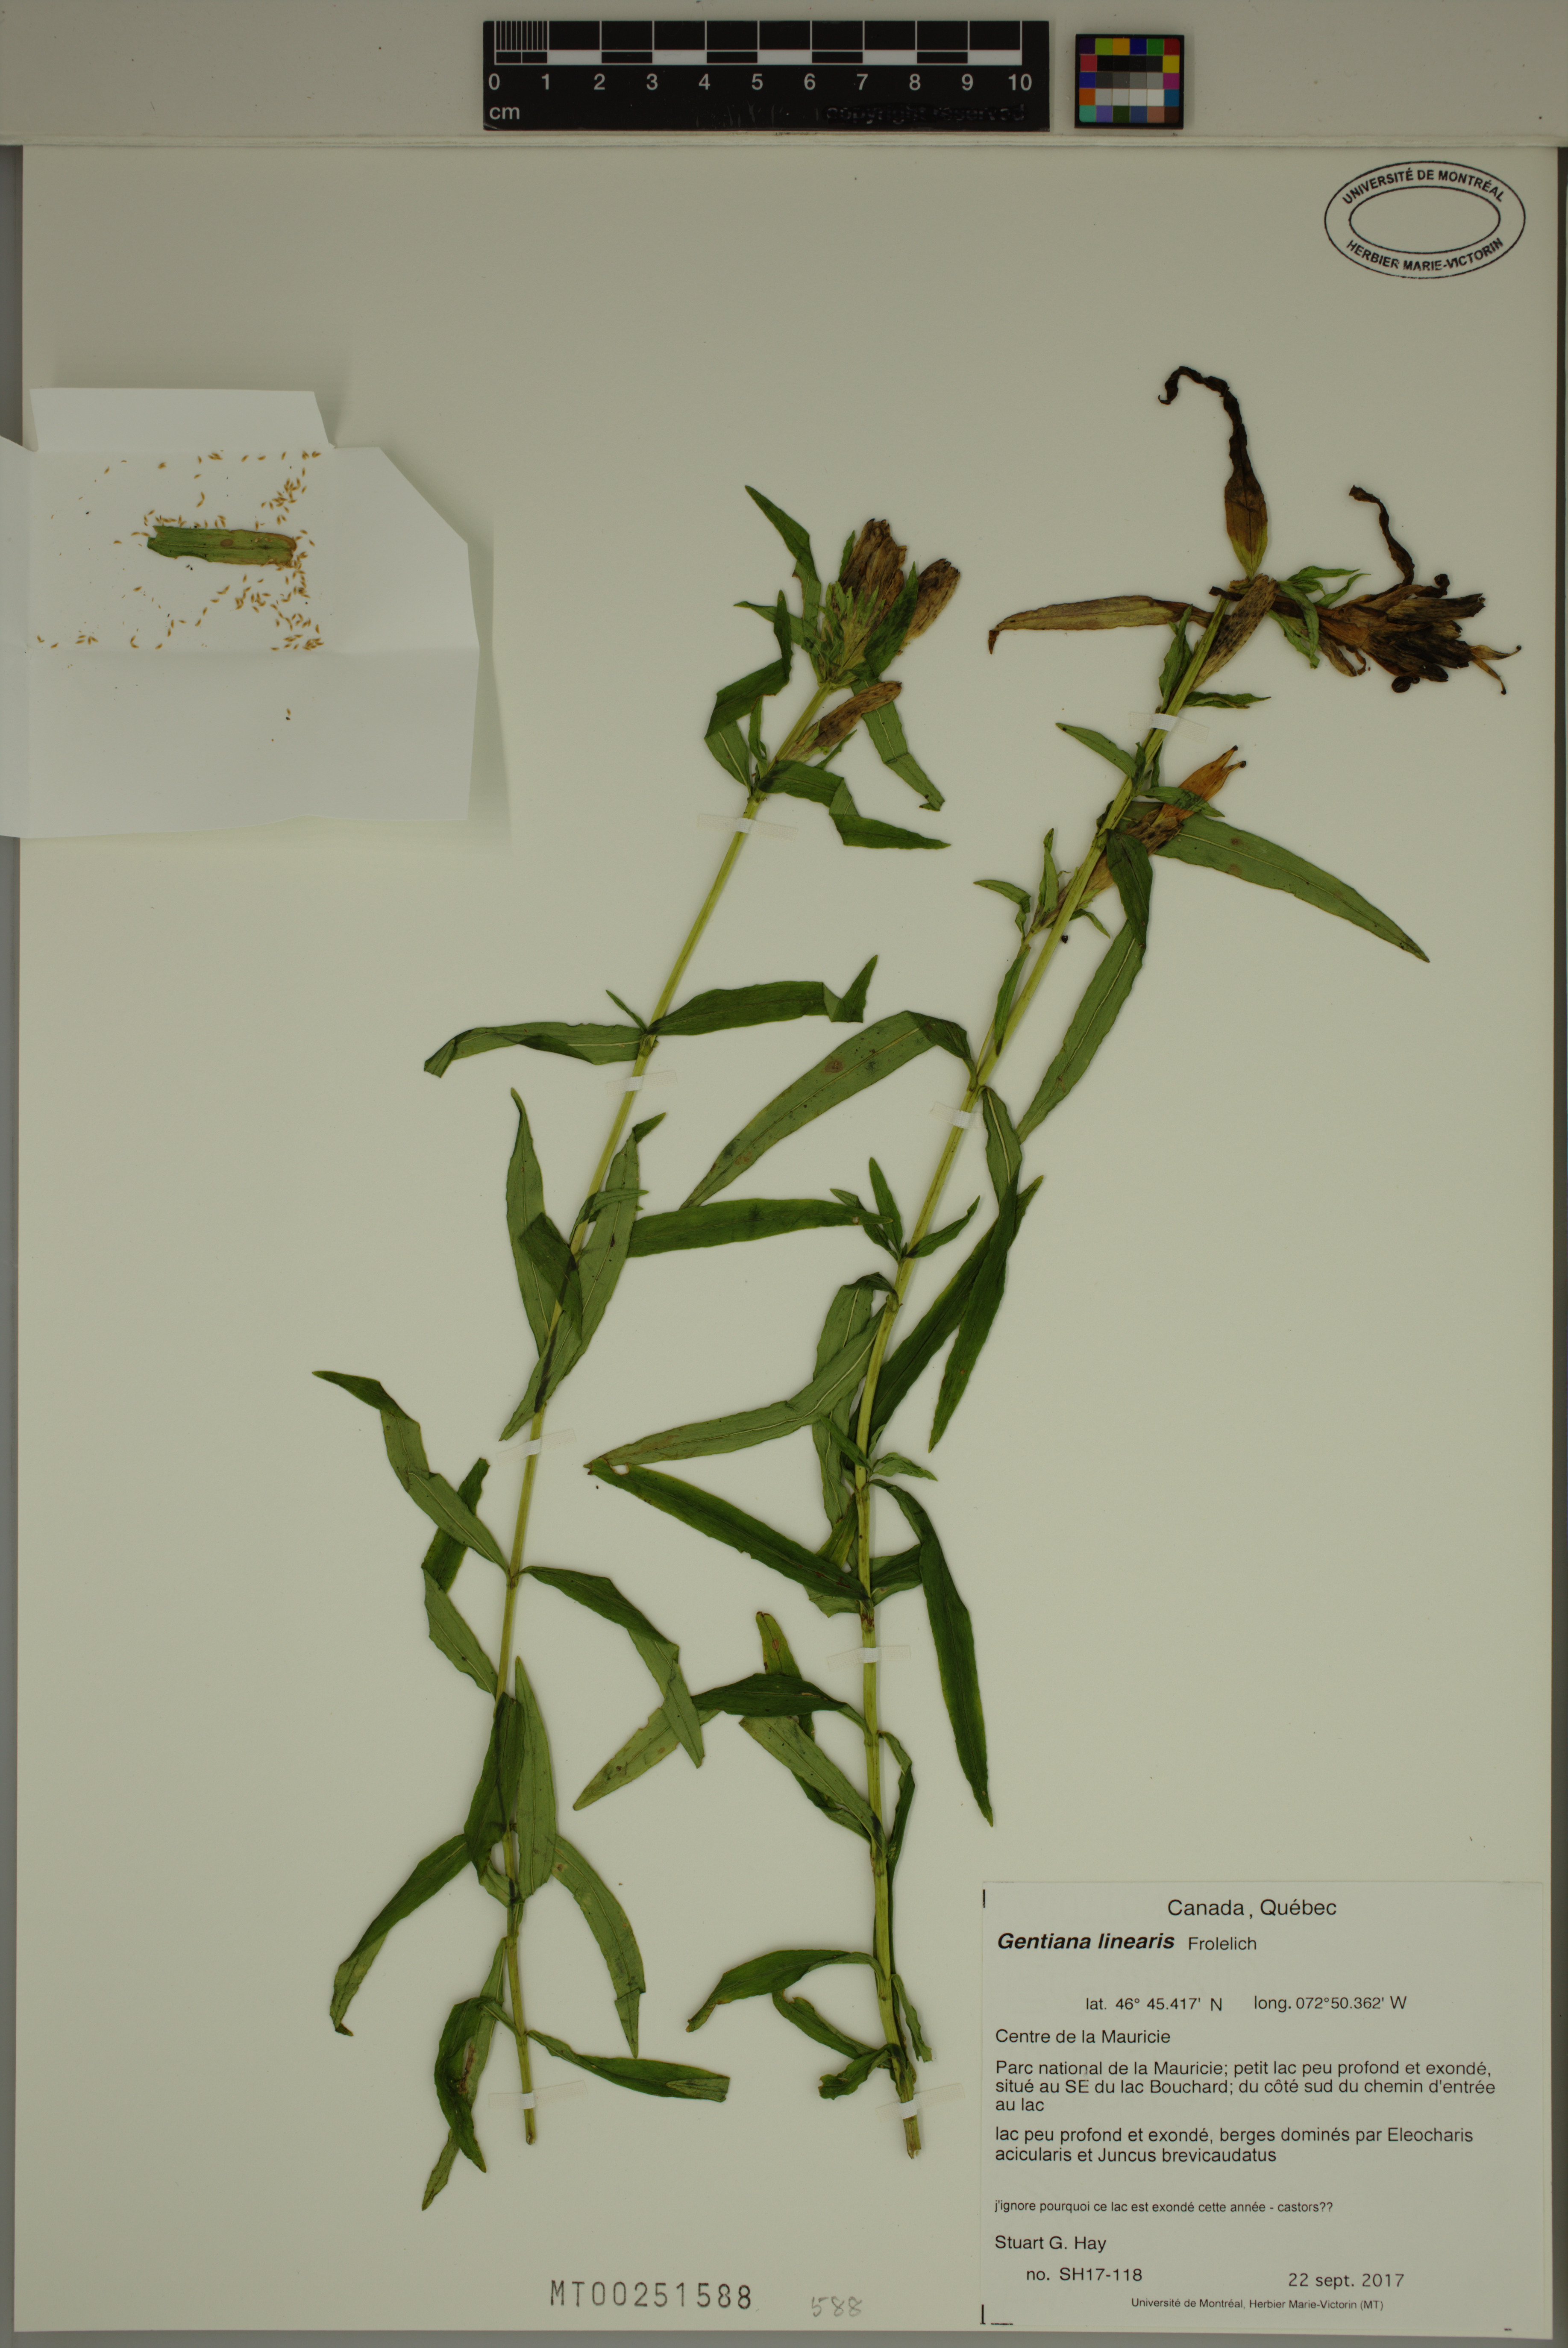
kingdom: Plantae
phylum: Tracheophyta
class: Magnoliopsida
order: Gentianales
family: Gentianaceae
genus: Gentiana
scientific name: Gentiana linearis
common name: Bastard gentian
